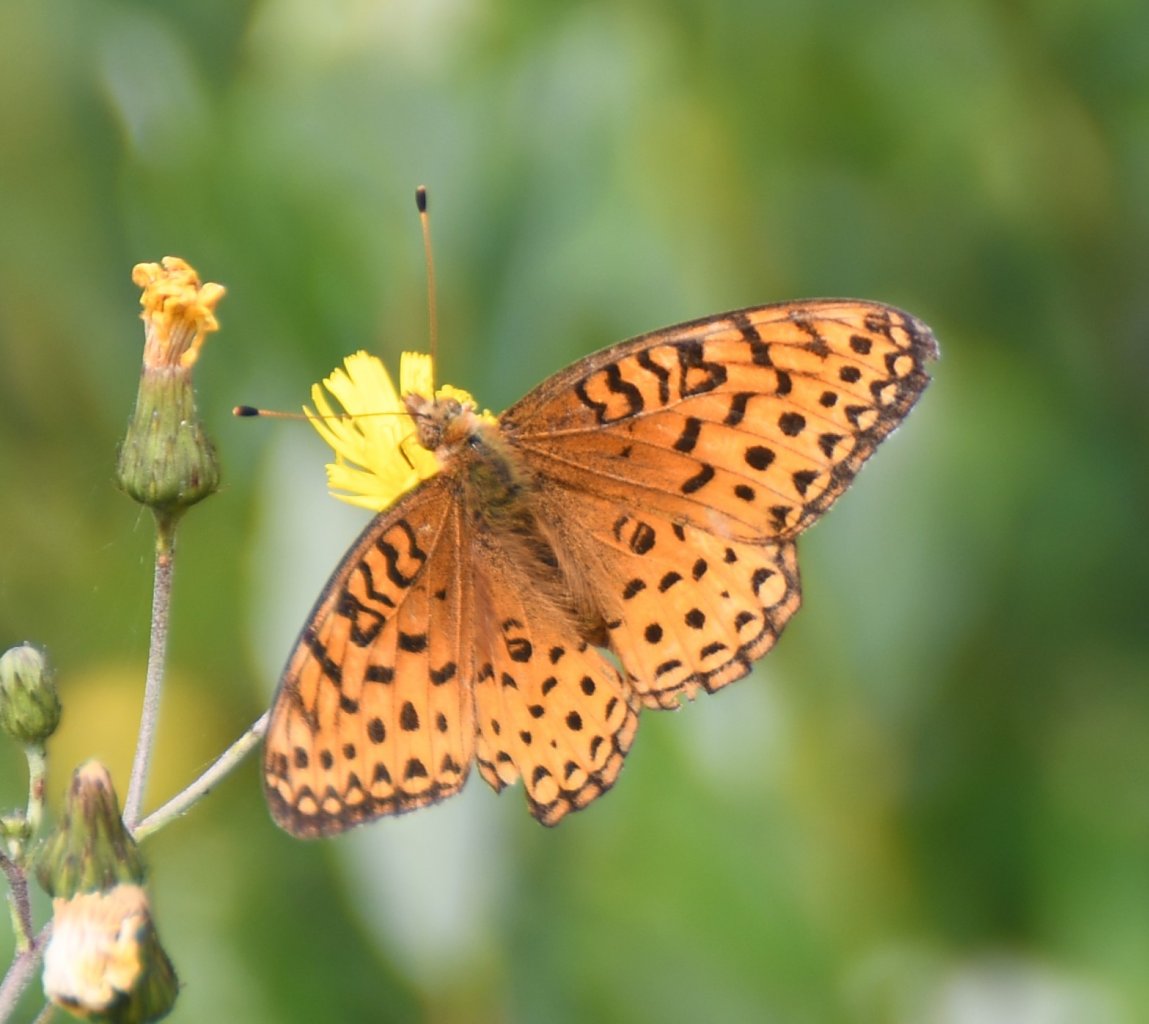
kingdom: Animalia
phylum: Arthropoda
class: Insecta
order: Lepidoptera
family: Nymphalidae
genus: Speyeria
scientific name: Speyeria aphrodite
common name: Aphrodite Fritillary
